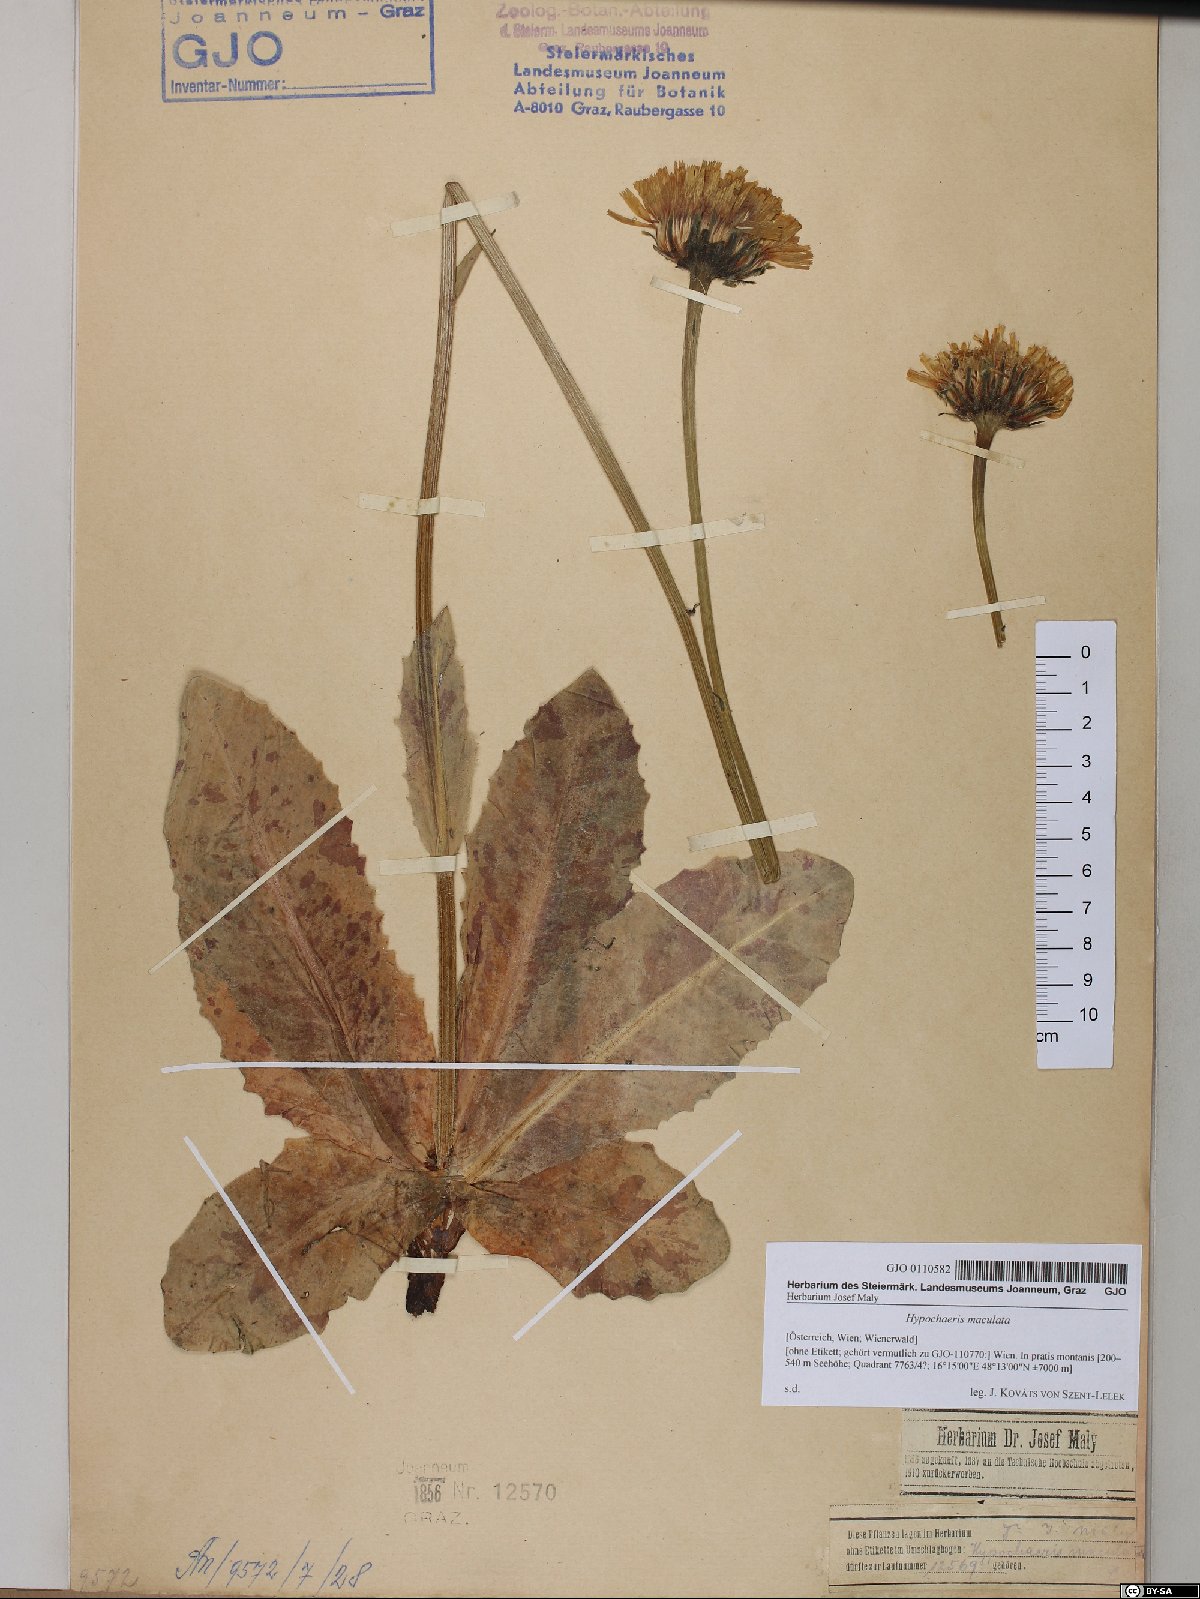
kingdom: Plantae
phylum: Tracheophyta
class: Magnoliopsida
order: Asterales
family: Asteraceae
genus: Trommsdorffia
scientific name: Trommsdorffia maculata
